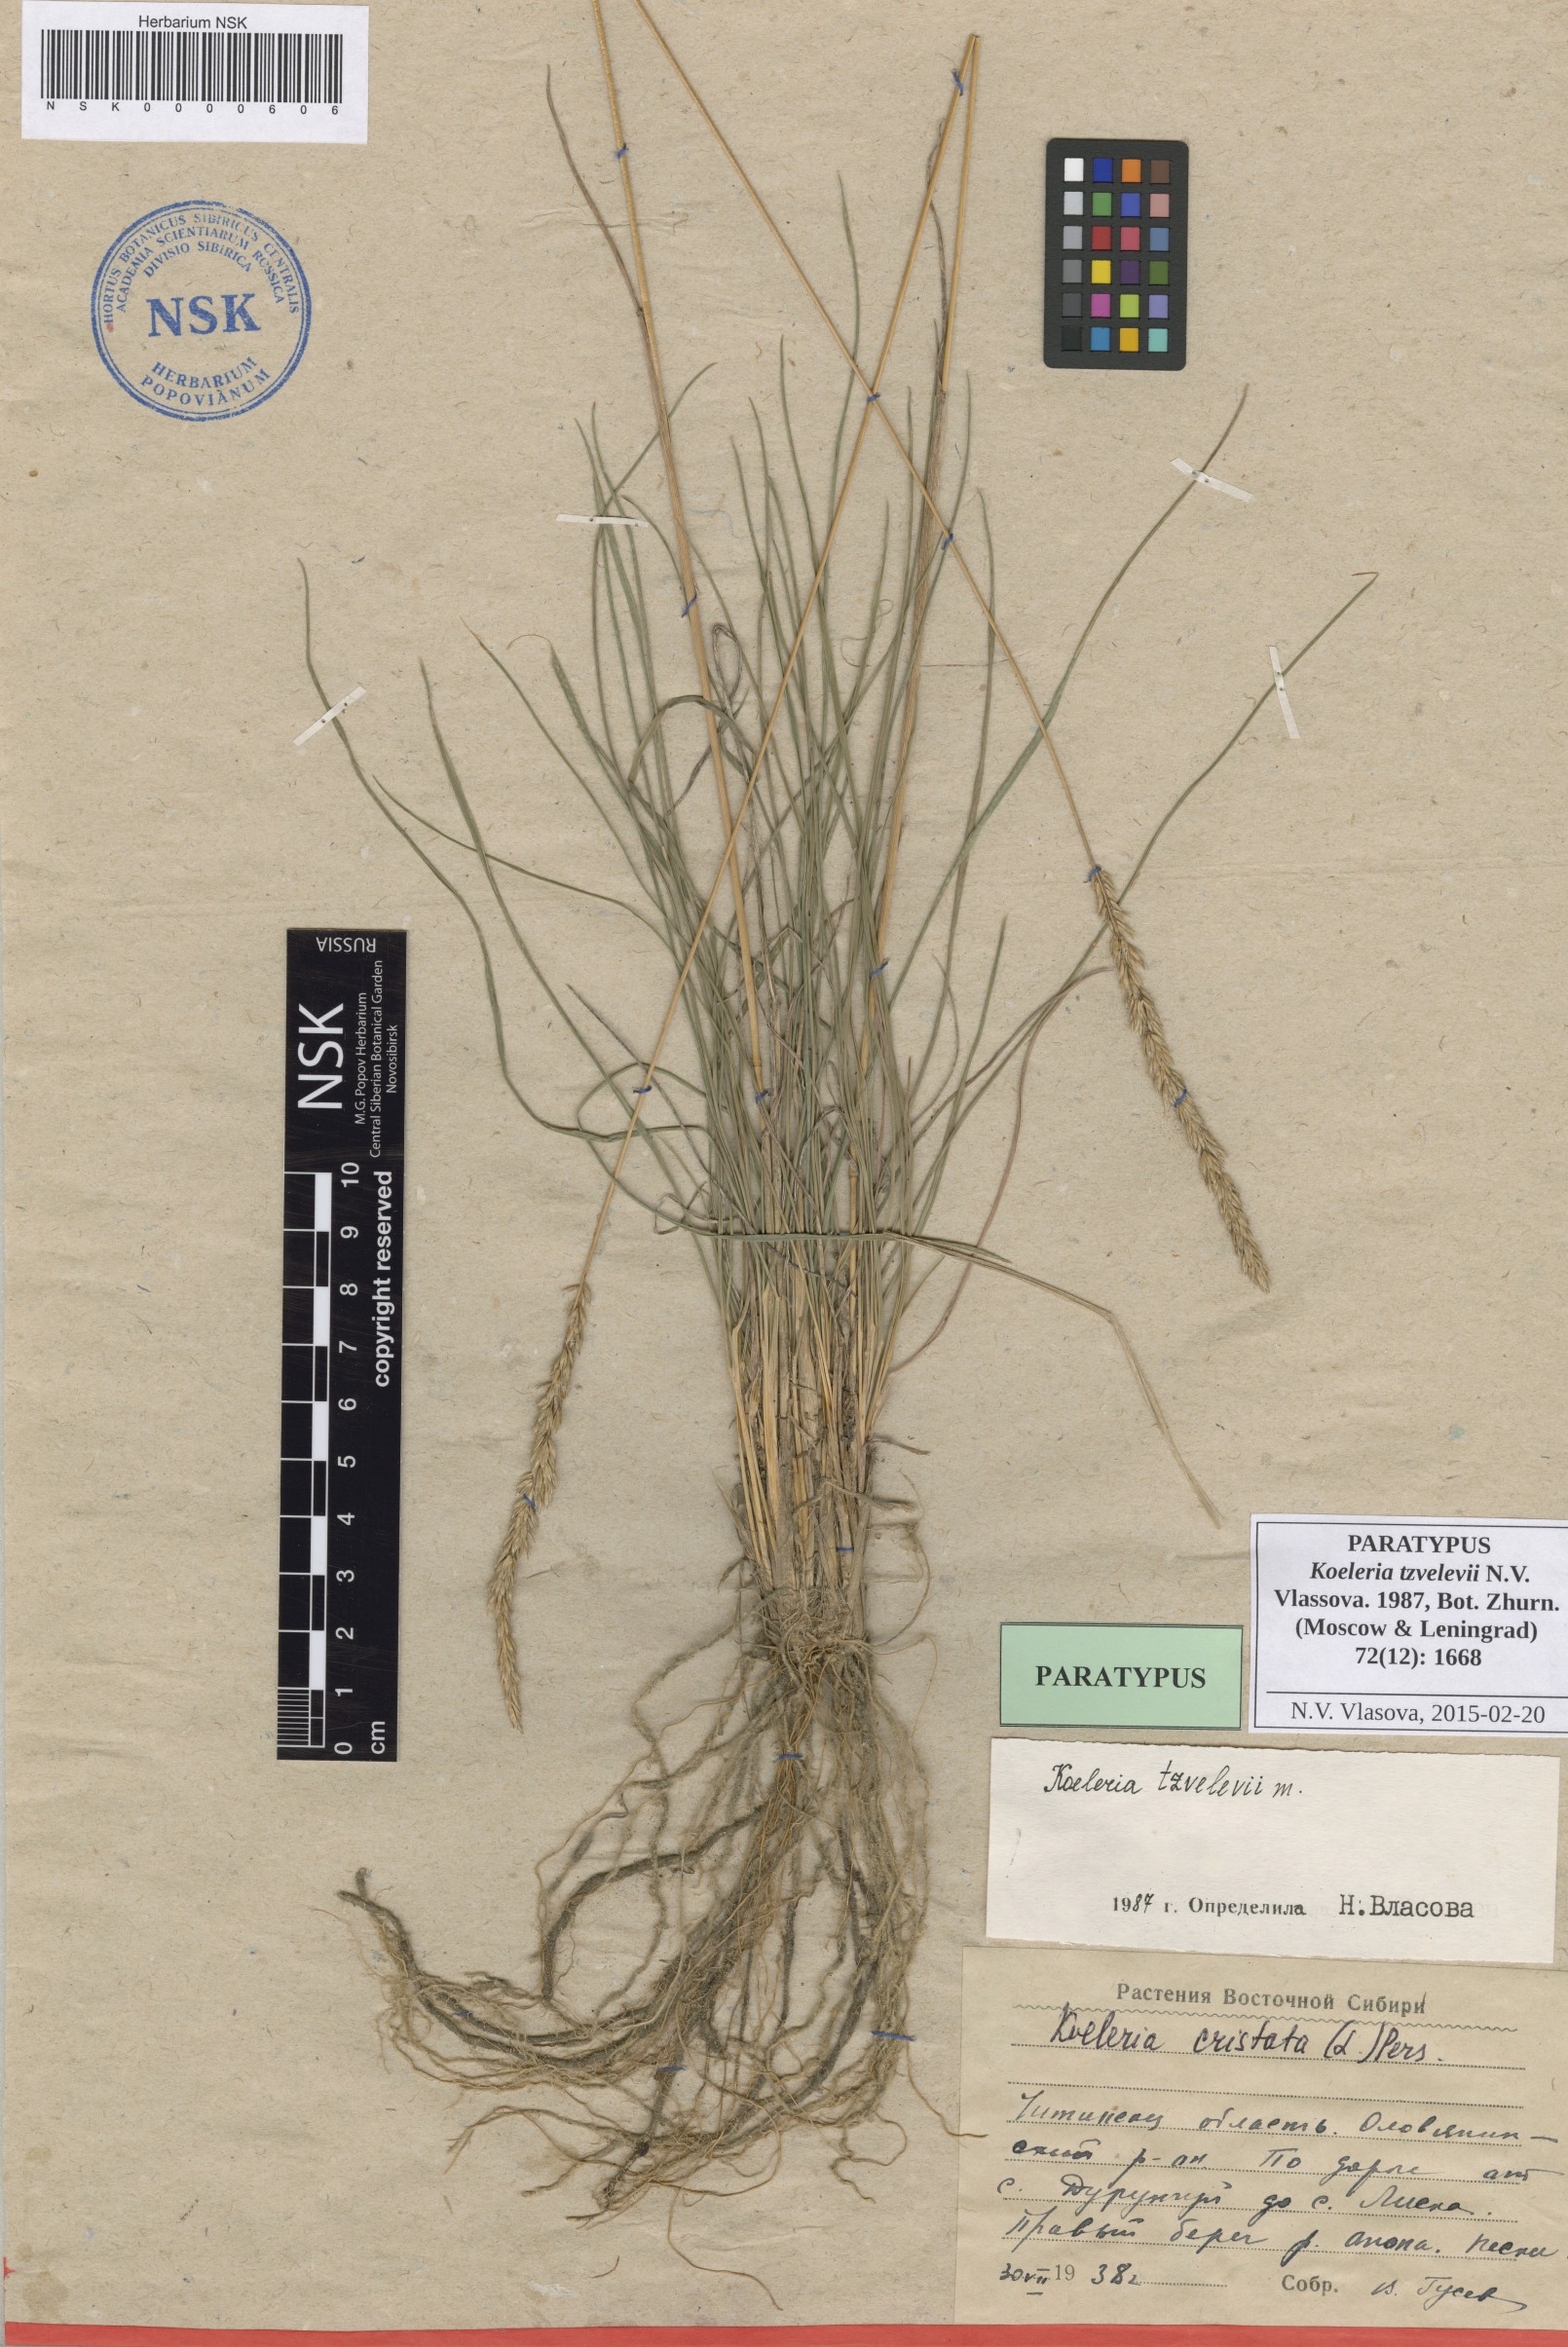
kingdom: Plantae
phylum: Tracheophyta
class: Liliopsida
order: Poales
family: Poaceae
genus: Koeleria
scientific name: Koeleria tzvelevii
